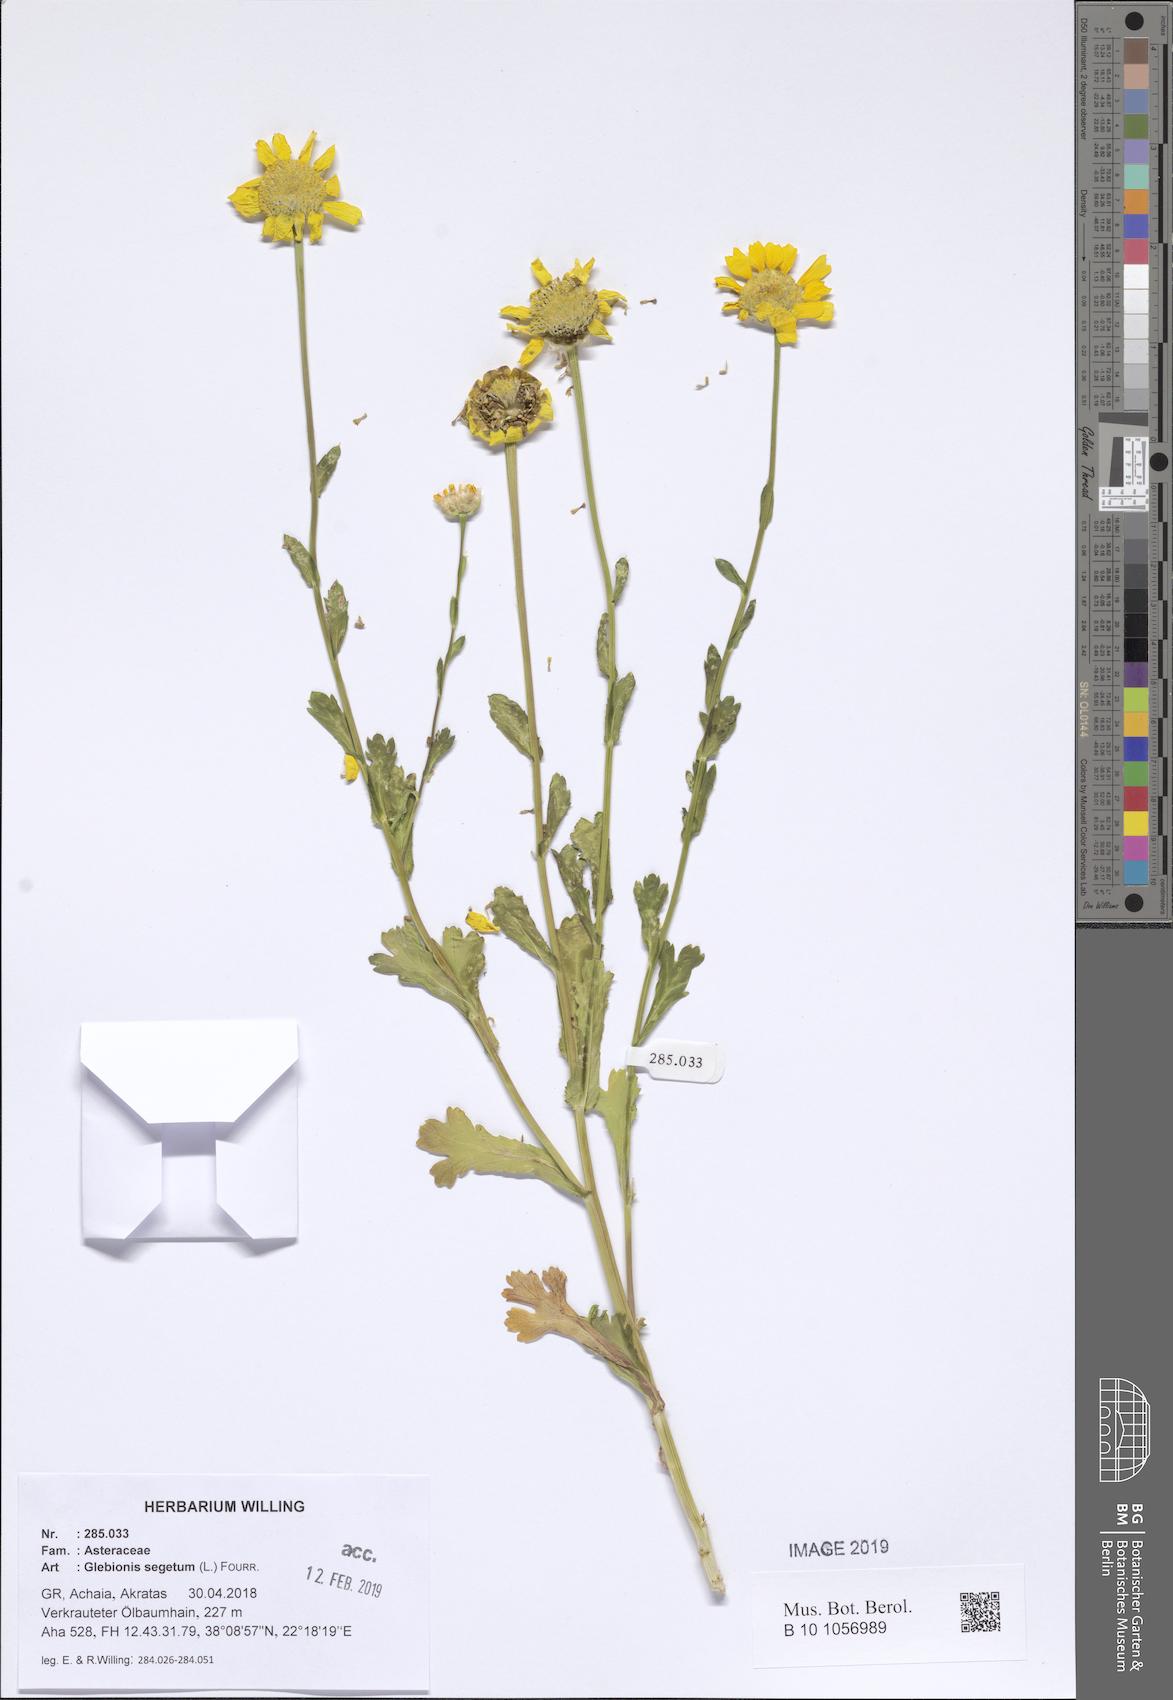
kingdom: Plantae
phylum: Tracheophyta
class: Magnoliopsida
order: Asterales
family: Asteraceae
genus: Glebionis
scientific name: Glebionis segetum
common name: Corndaisy
